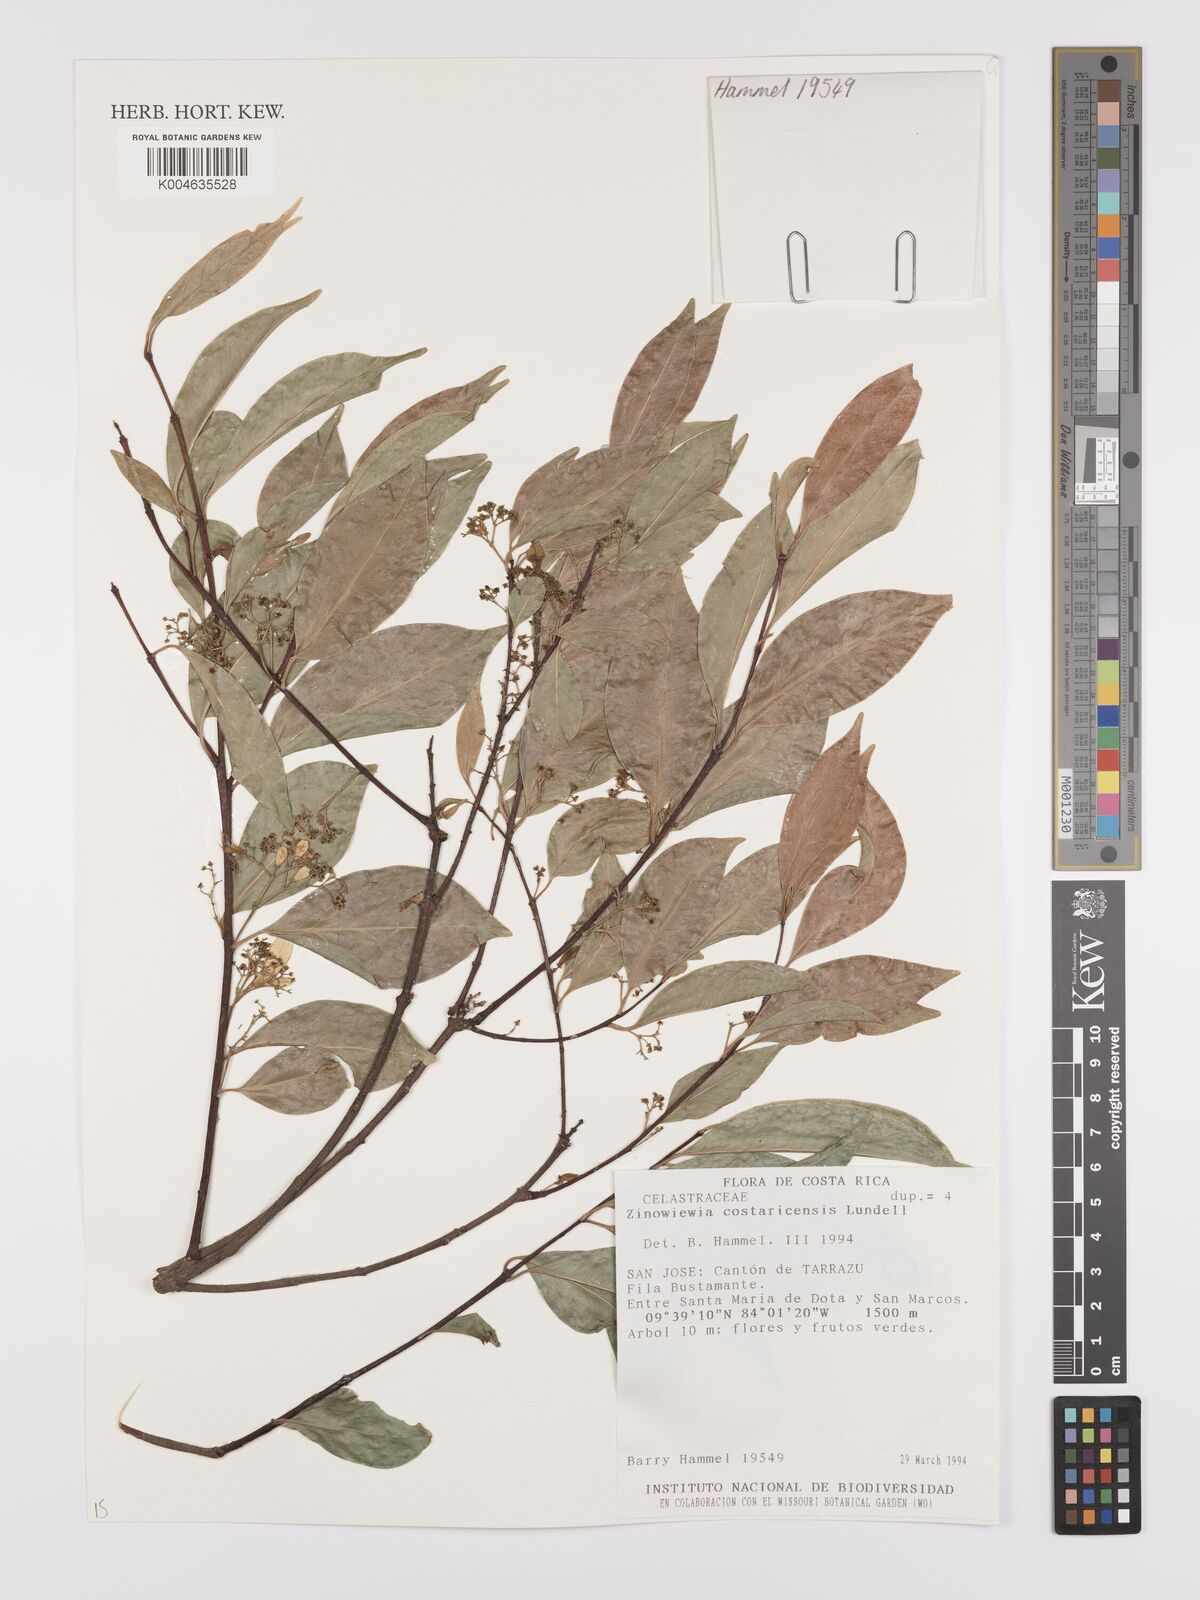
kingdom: Plantae
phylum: Tracheophyta
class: Magnoliopsida
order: Celastrales
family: Celastraceae
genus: Zinowiewia
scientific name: Zinowiewia integerrima
